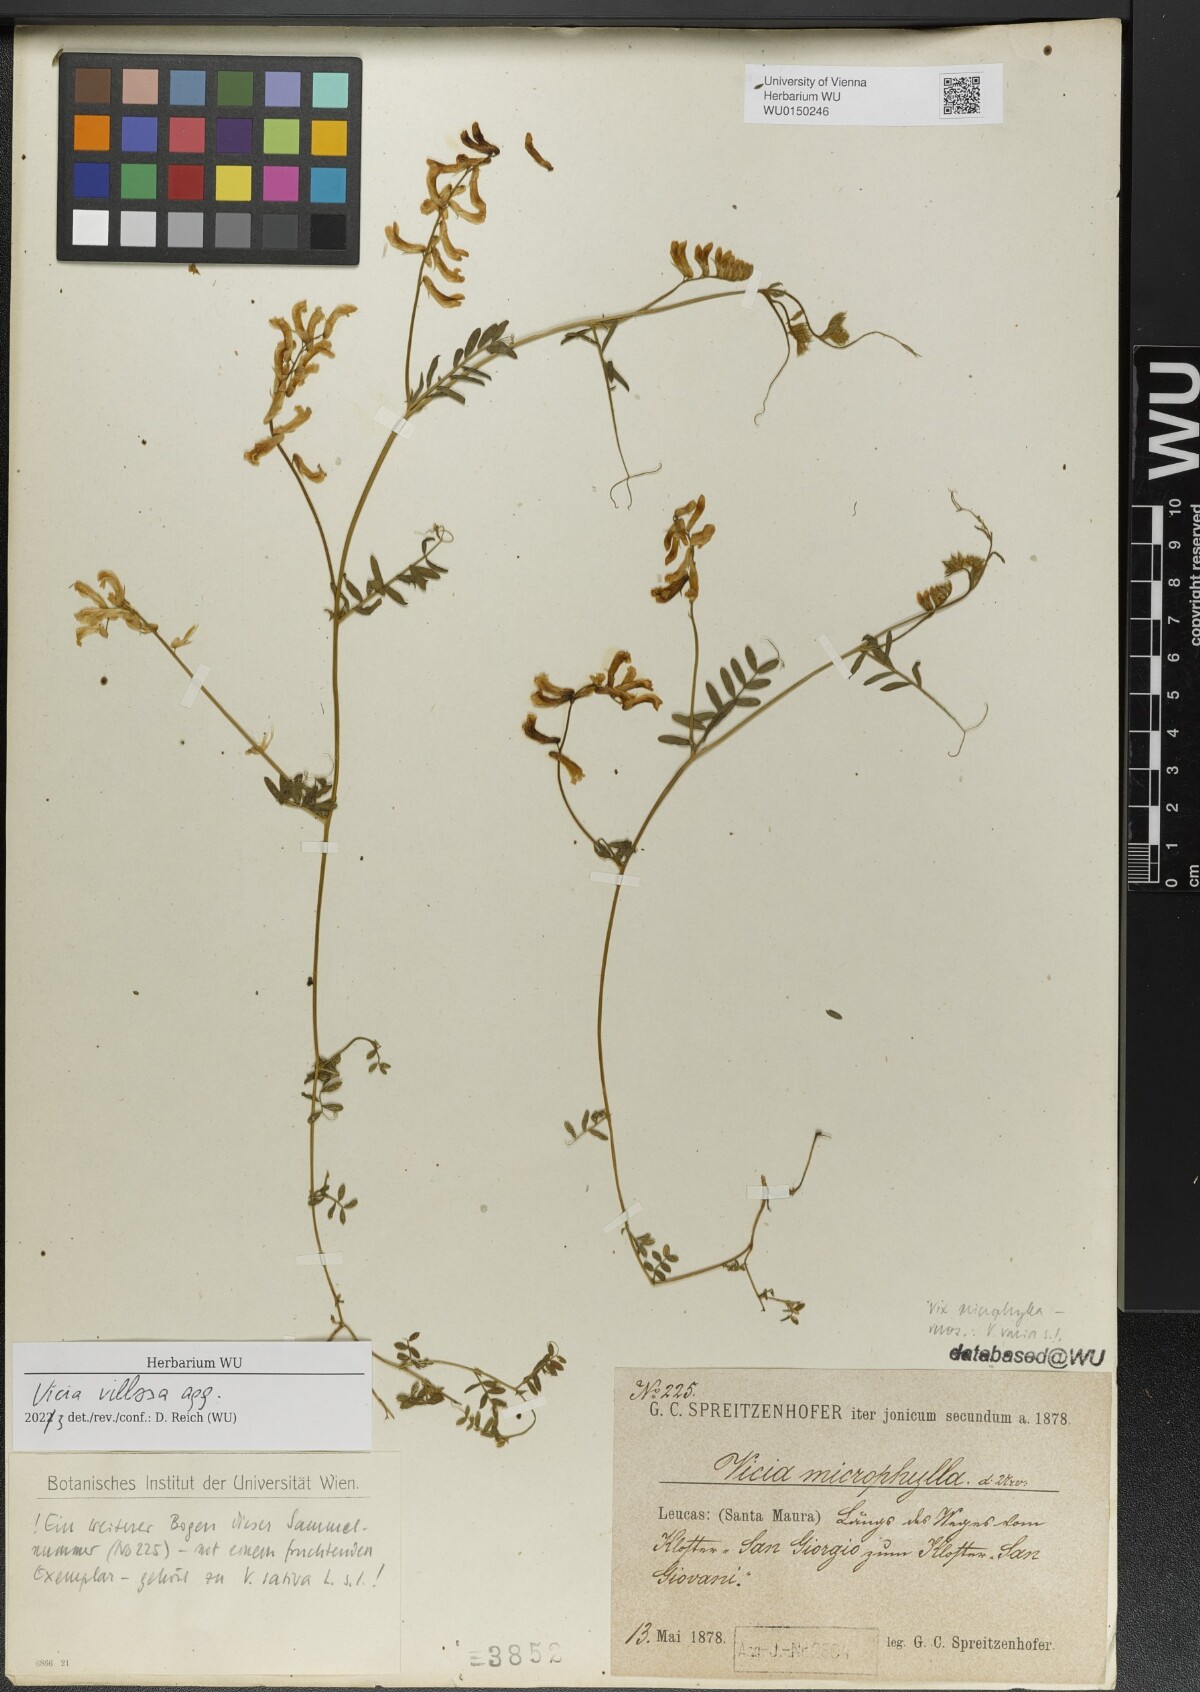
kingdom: Plantae
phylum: Tracheophyta
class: Magnoliopsida
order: Fabales
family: Fabaceae
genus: Vicia
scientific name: Vicia villosa
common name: Fodder vetch
